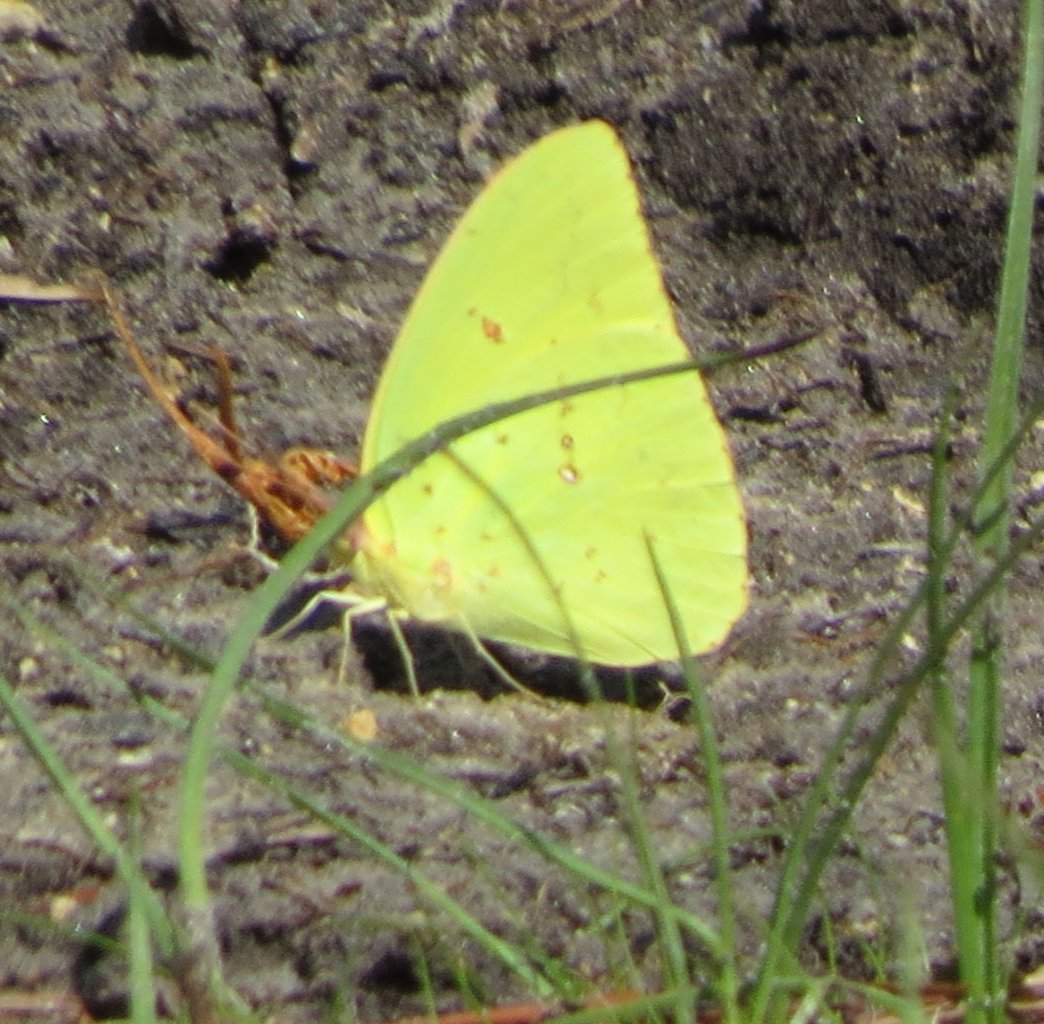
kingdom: Animalia
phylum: Arthropoda
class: Insecta
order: Lepidoptera
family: Pieridae
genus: Phoebis
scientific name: Phoebis sennae
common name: Cloudless Sulphur
